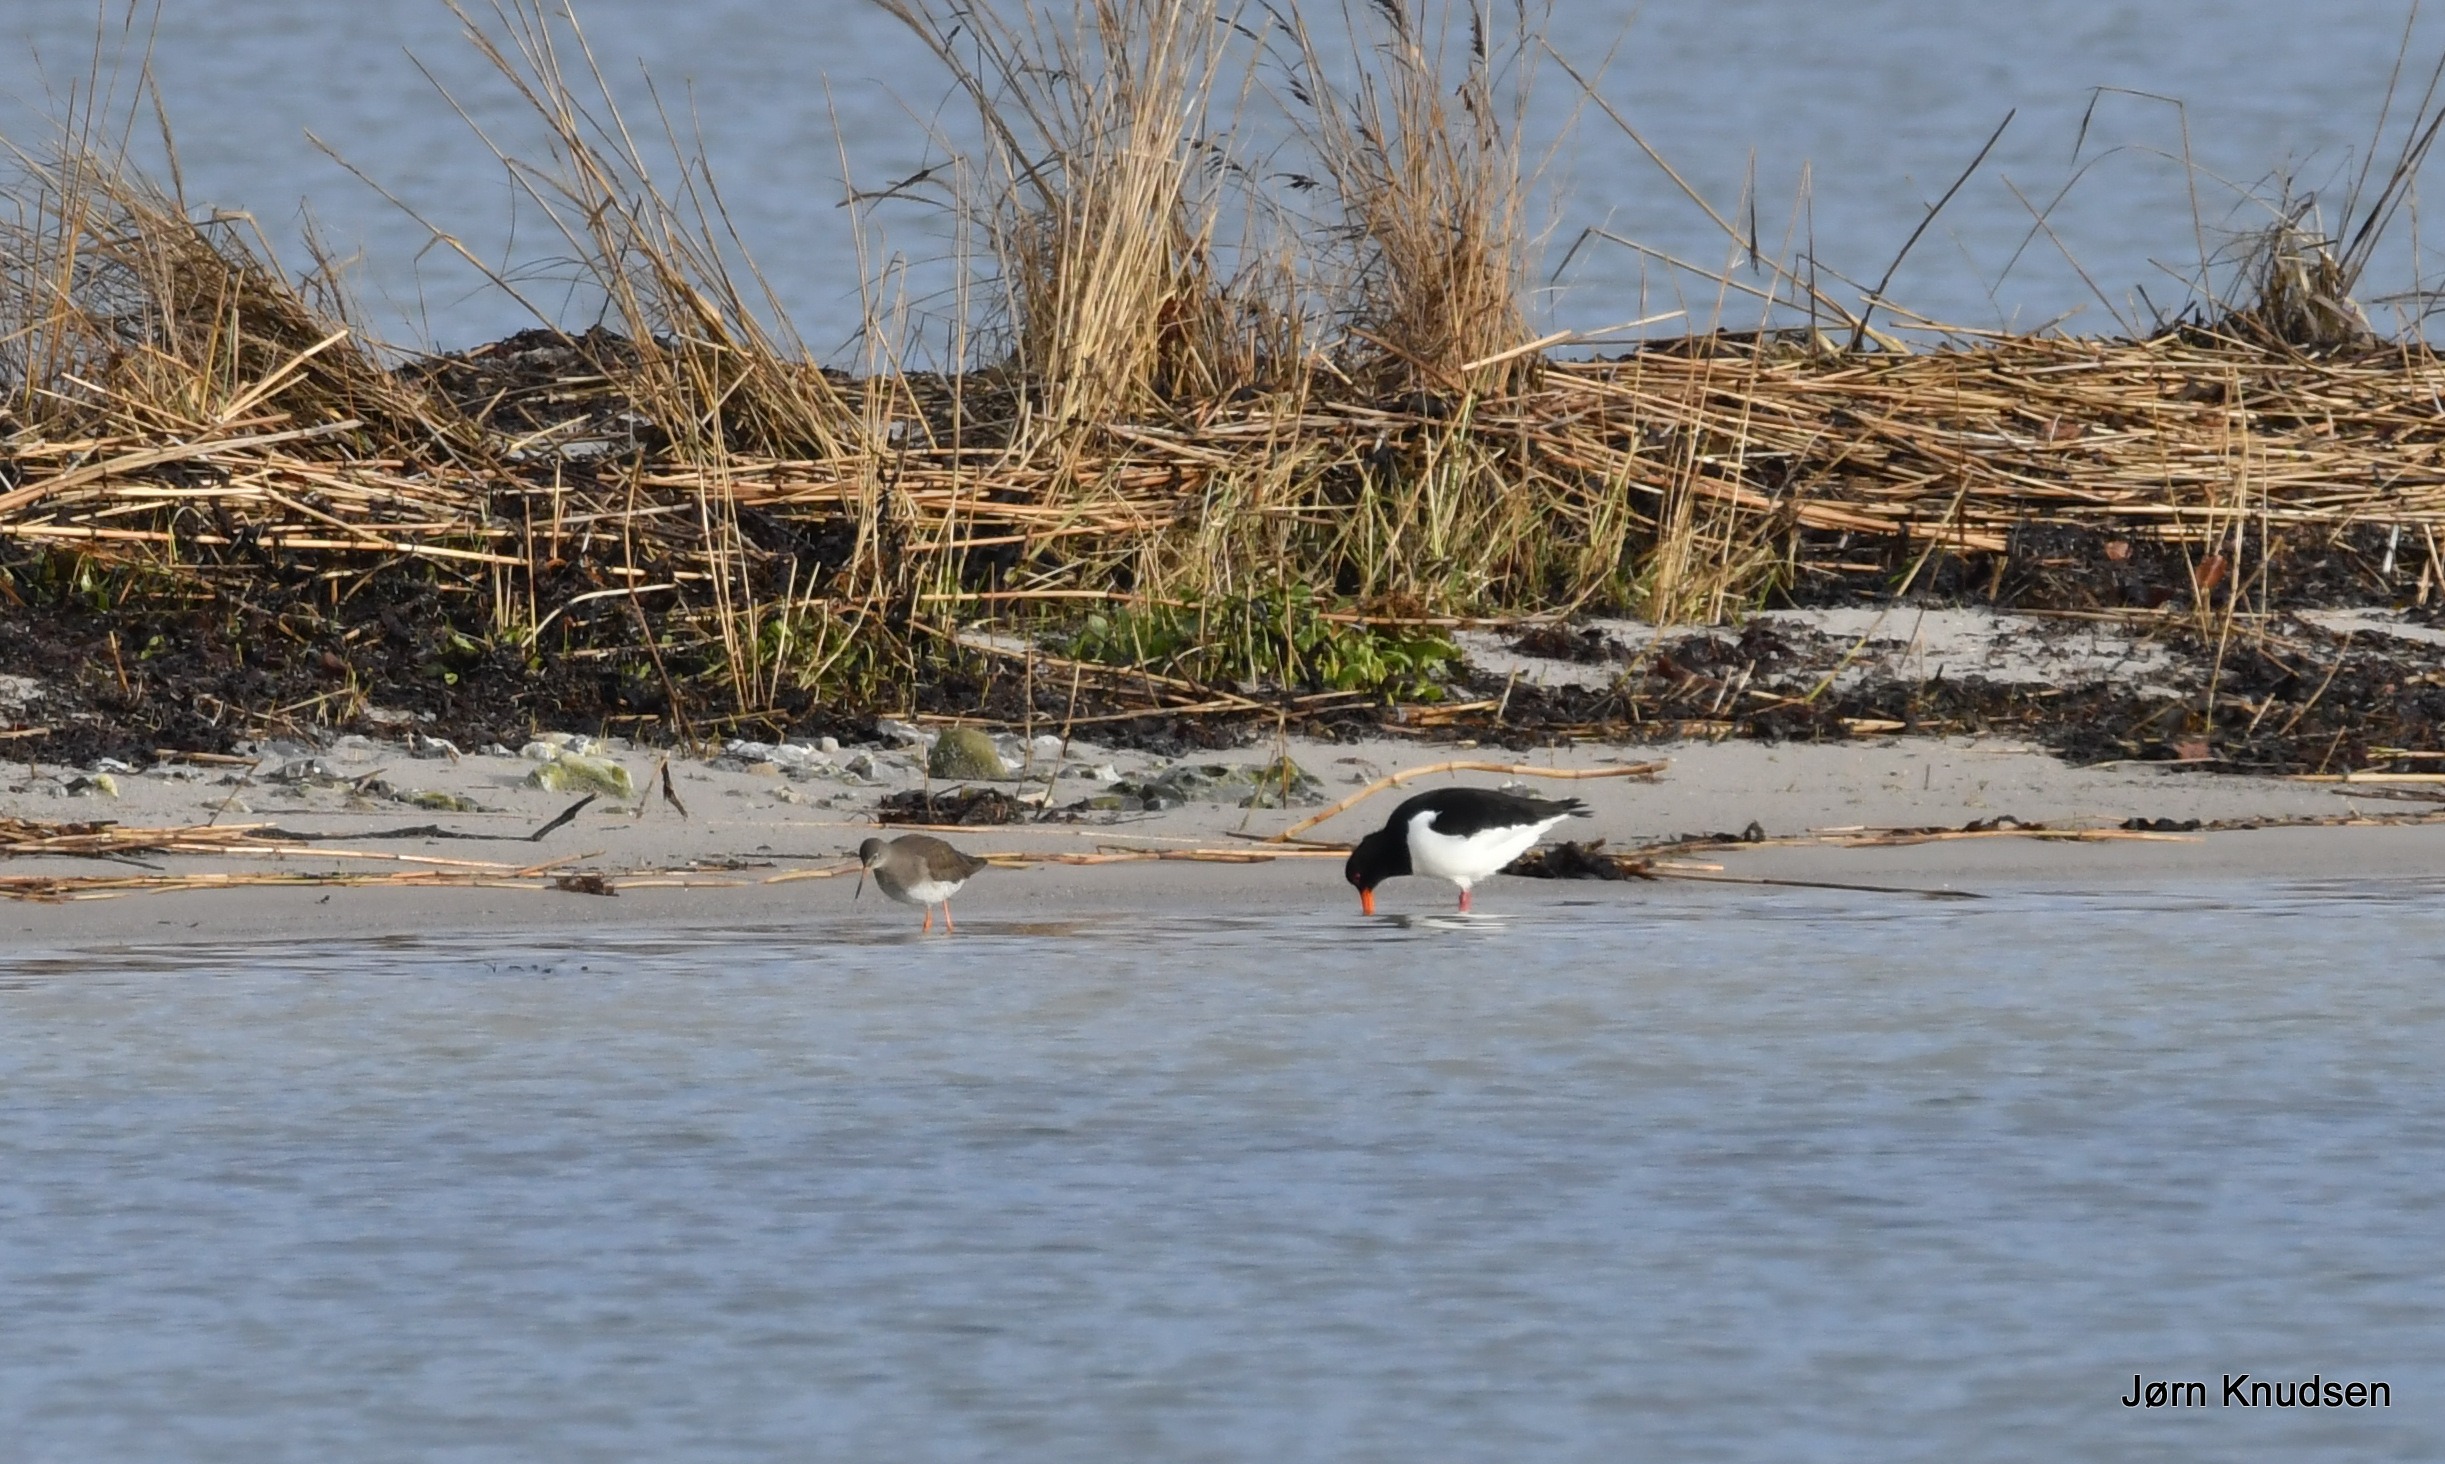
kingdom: Animalia
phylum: Chordata
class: Aves
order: Charadriiformes
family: Haematopodidae
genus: Haematopus
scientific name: Haematopus ostralegus
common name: Strandskade
